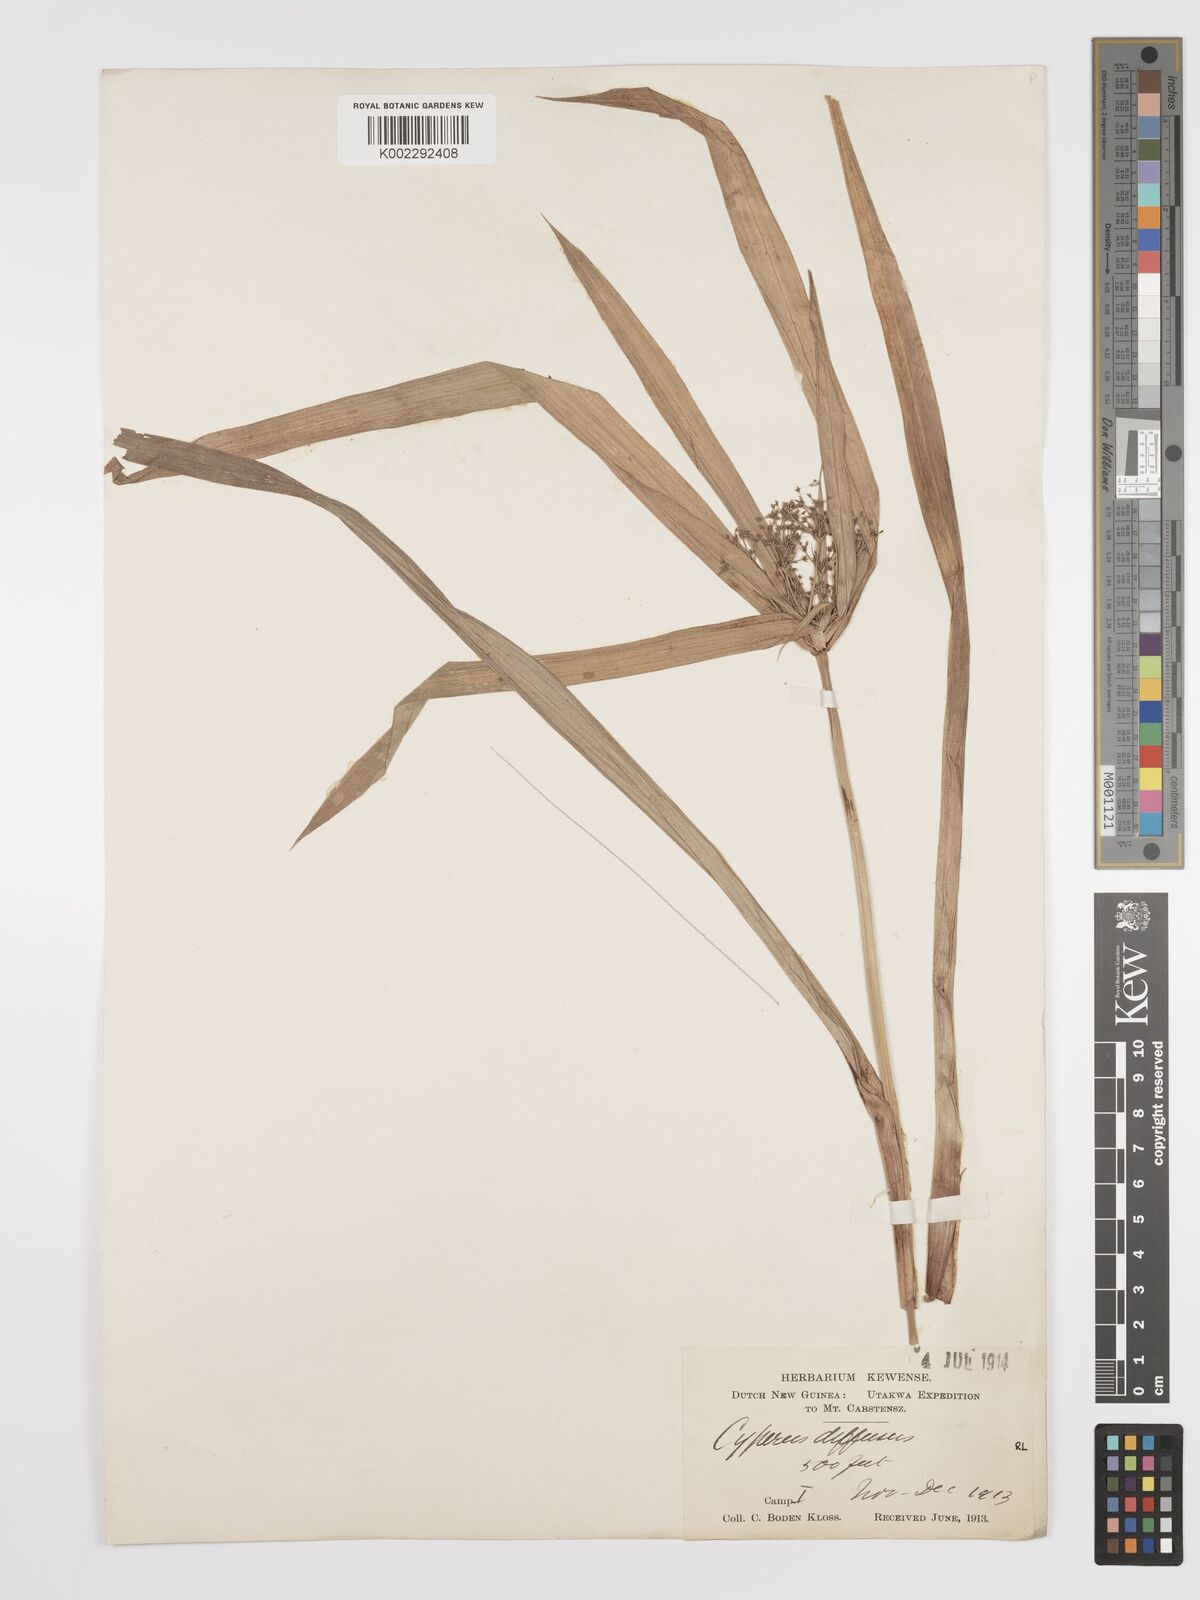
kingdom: Plantae
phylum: Tracheophyta
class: Liliopsida
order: Poales
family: Cyperaceae
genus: Cyperus
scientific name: Cyperus diffusus
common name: Dwarf umbrella grass
